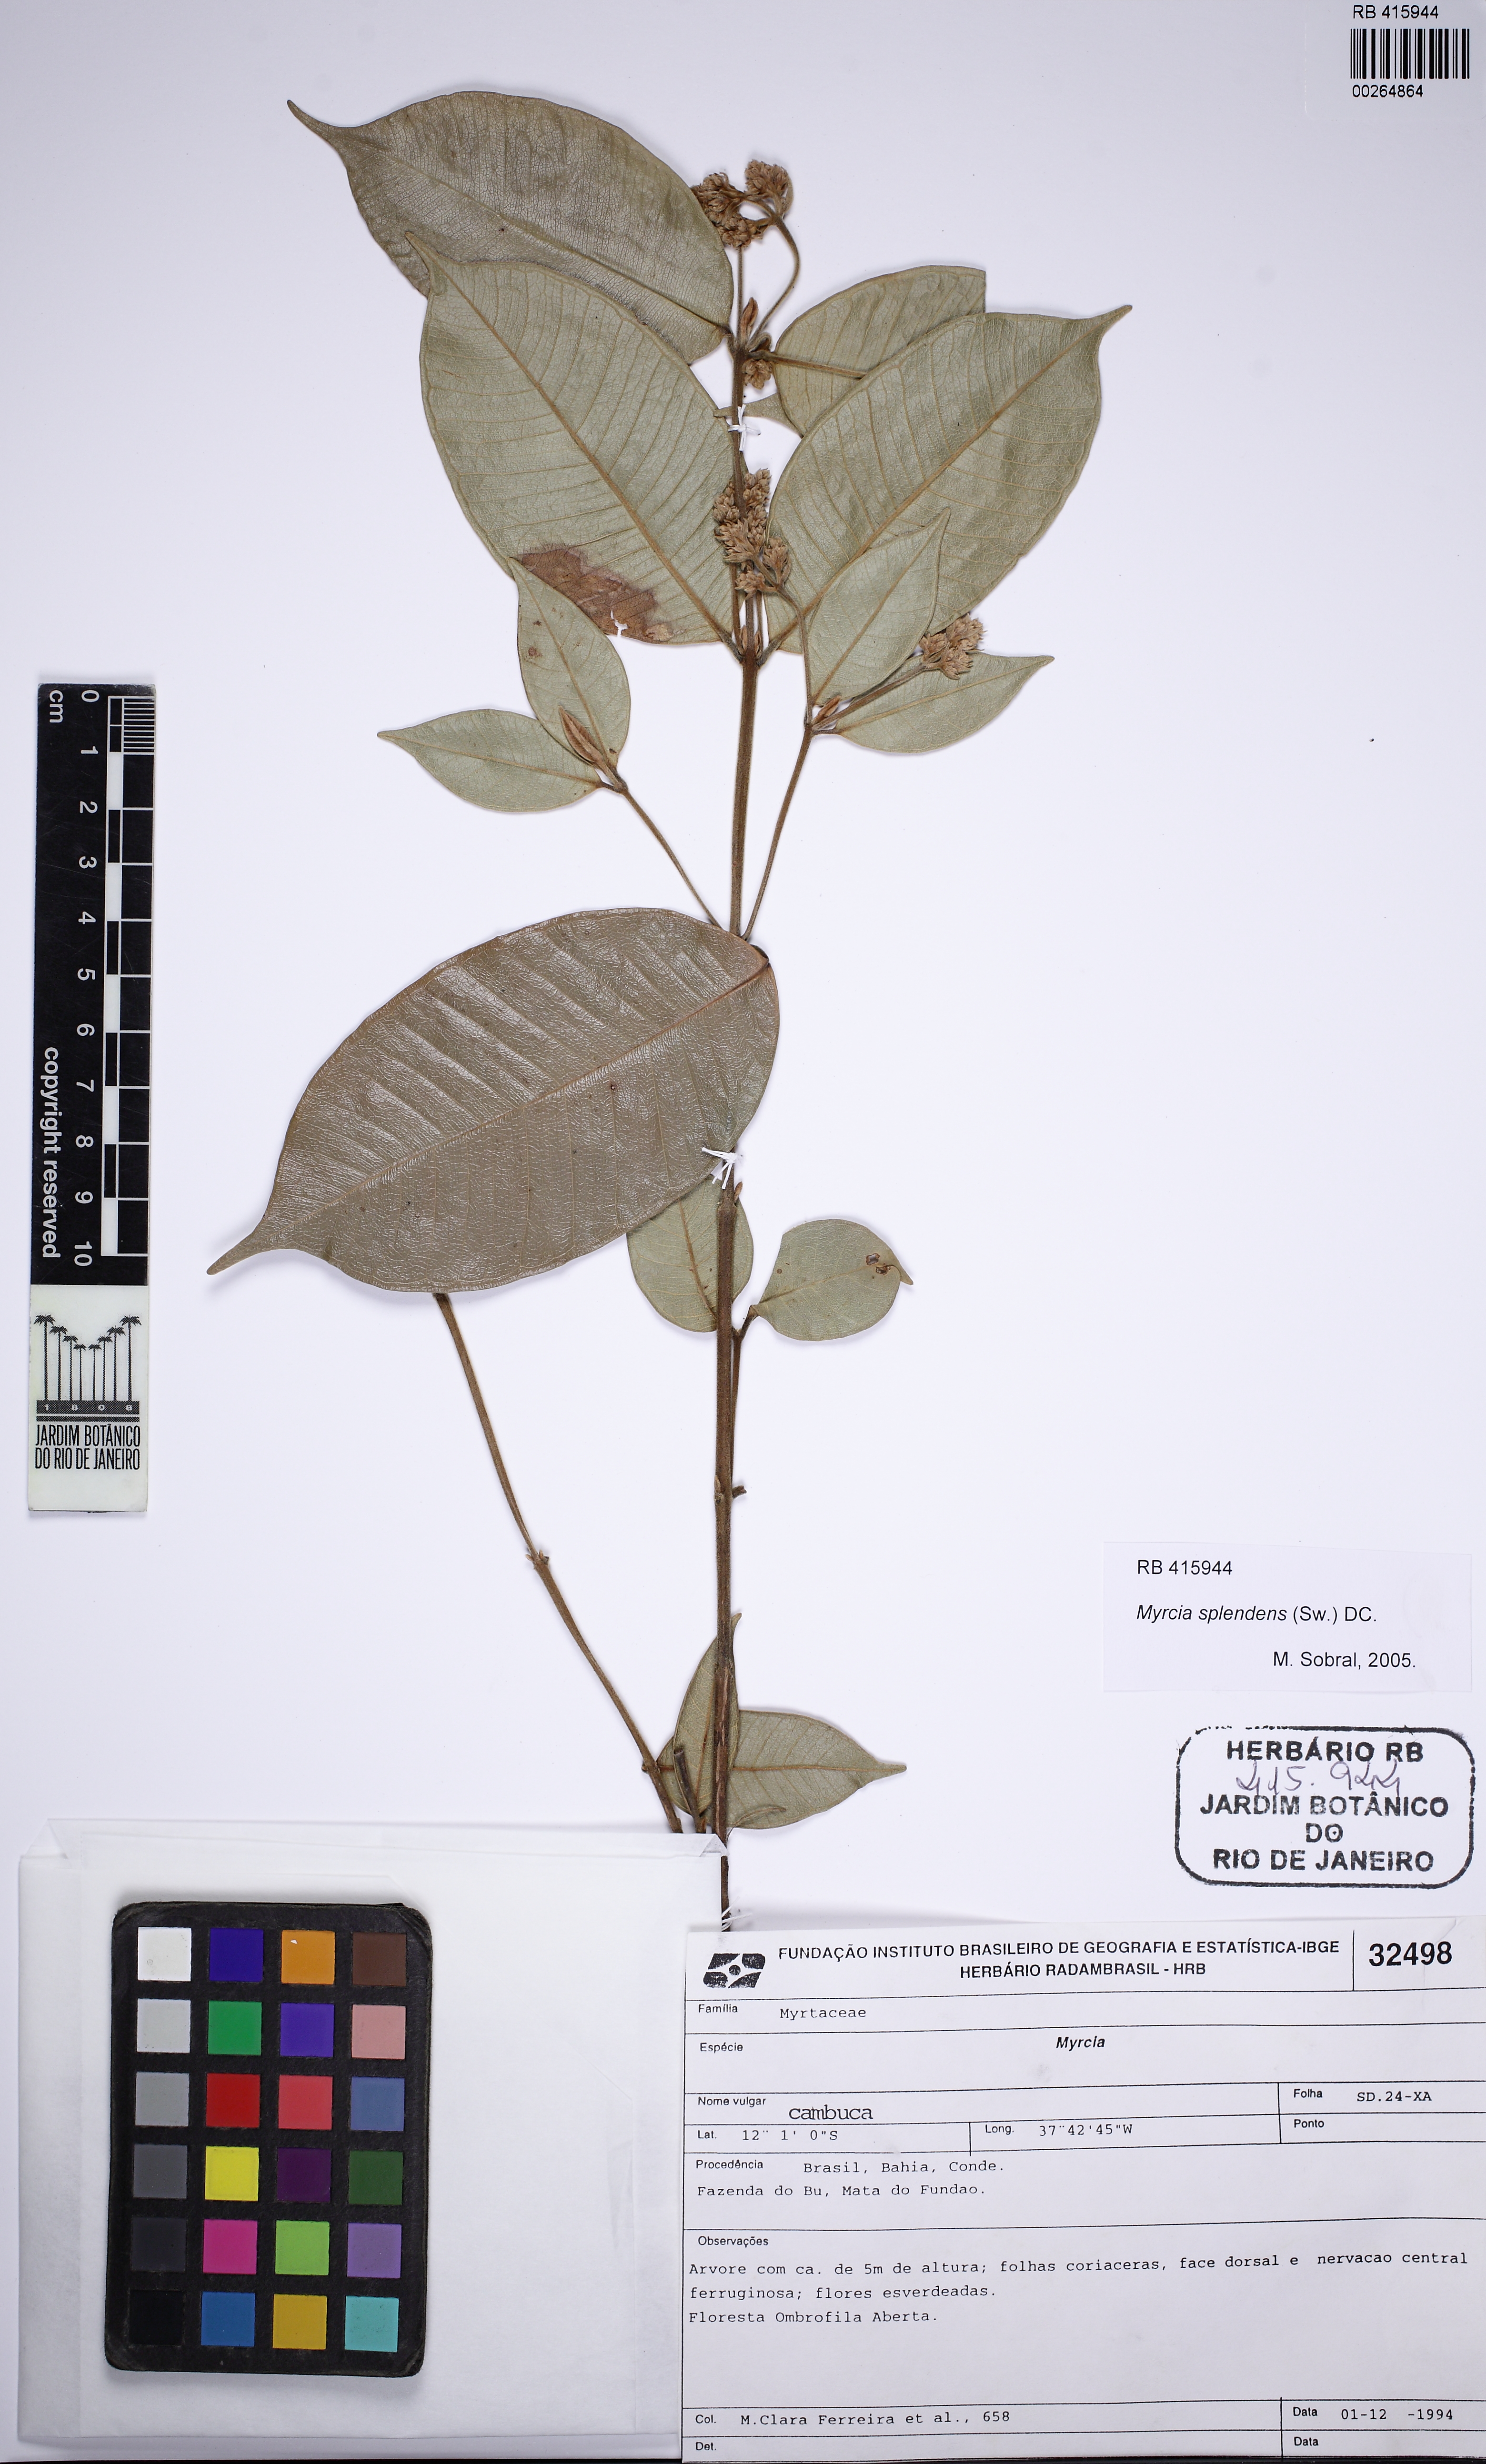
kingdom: Plantae
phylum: Tracheophyta
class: Magnoliopsida
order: Myrtales
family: Myrtaceae
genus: Myrcia
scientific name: Myrcia splendens
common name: Surinam cherry
